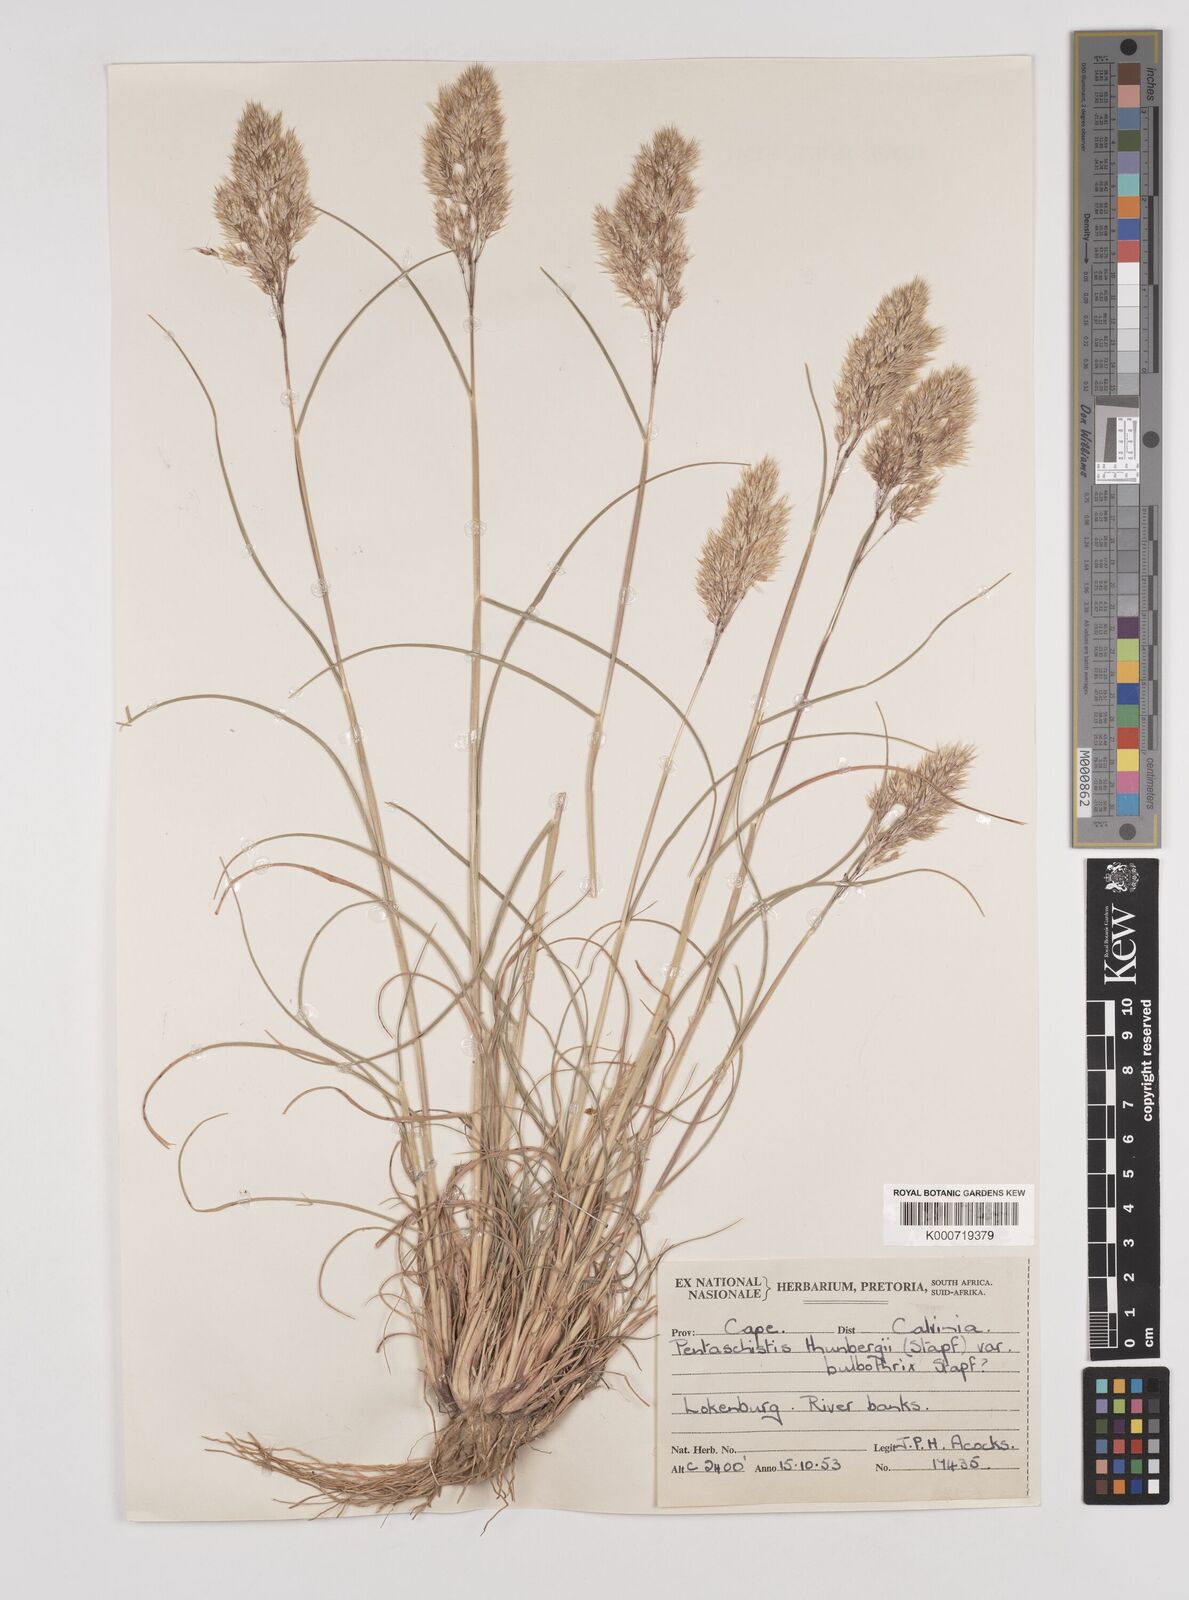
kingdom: Plantae
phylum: Tracheophyta
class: Liliopsida
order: Poales
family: Poaceae
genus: Pentameris
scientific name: Pentameris triseta
